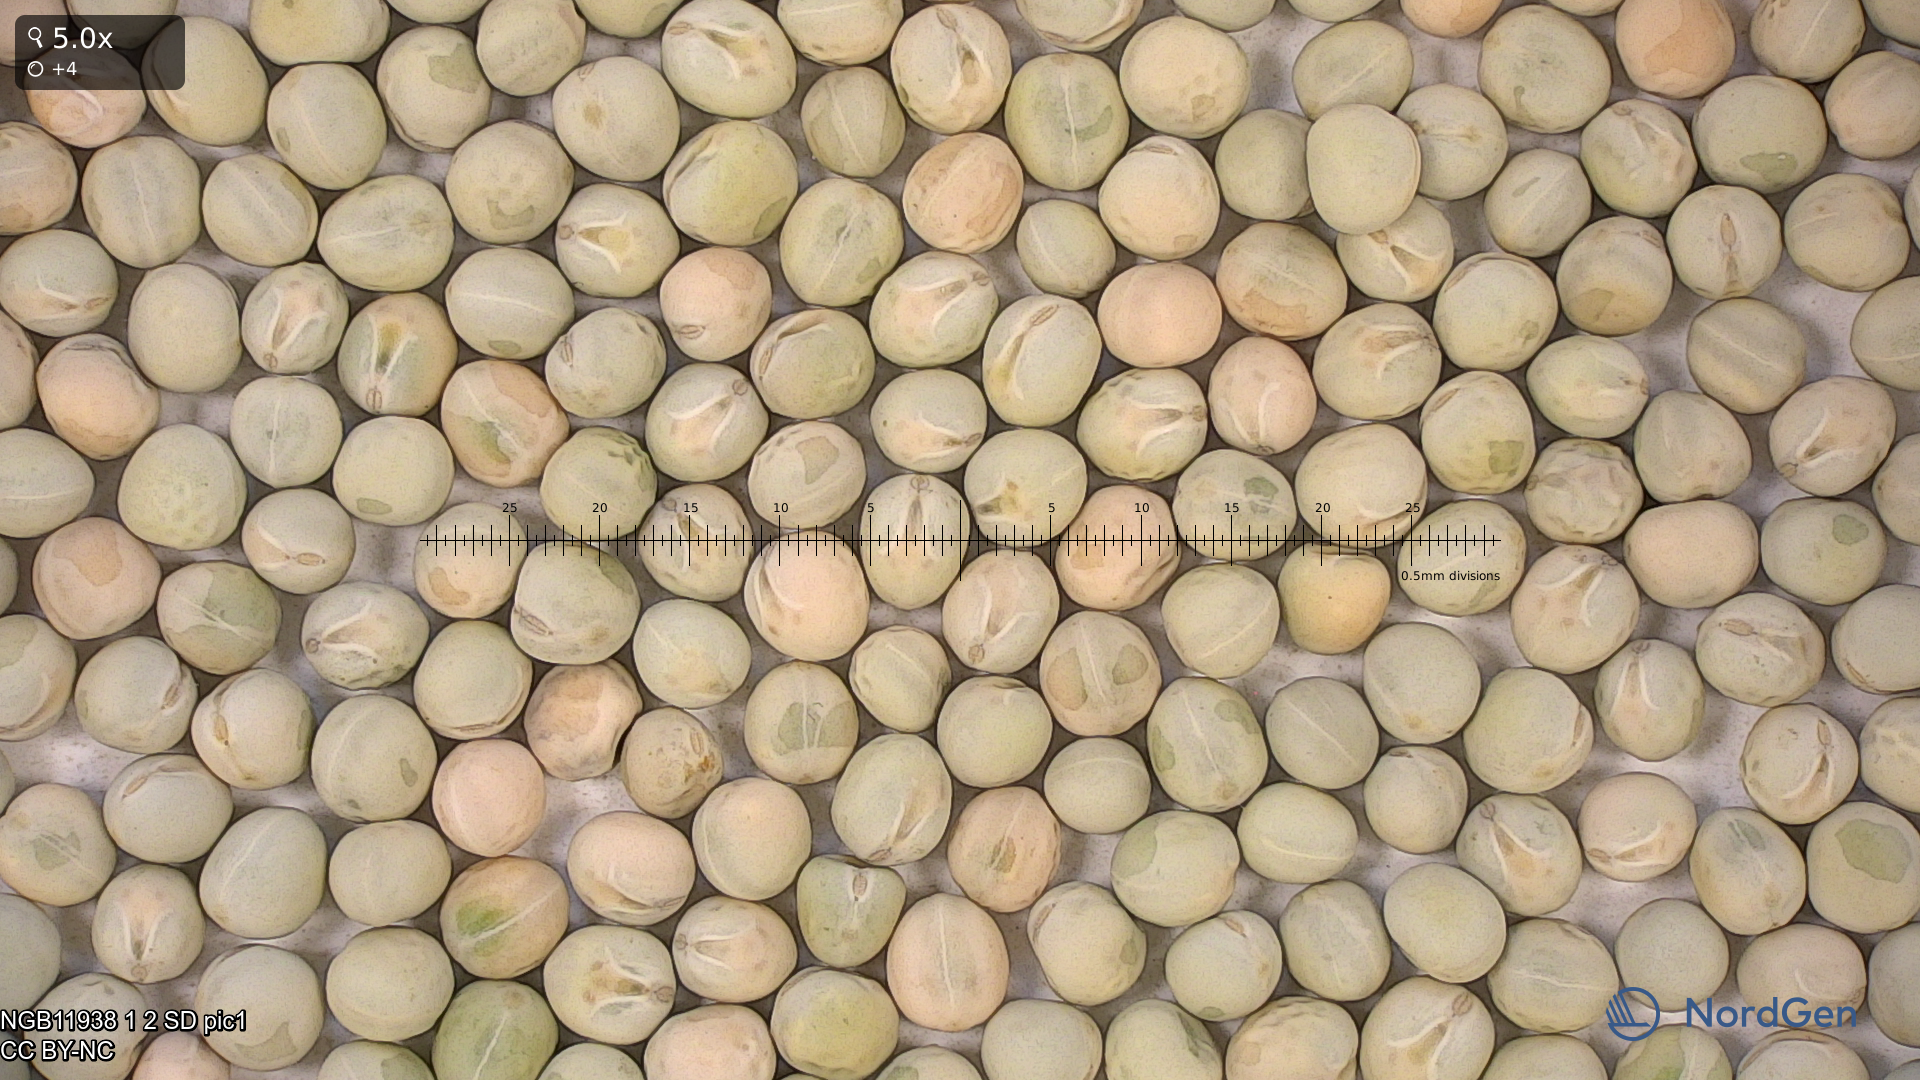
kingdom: Plantae
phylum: Tracheophyta
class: Magnoliopsida
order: Fabales
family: Fabaceae
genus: Lathyrus
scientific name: Lathyrus oleraceus
